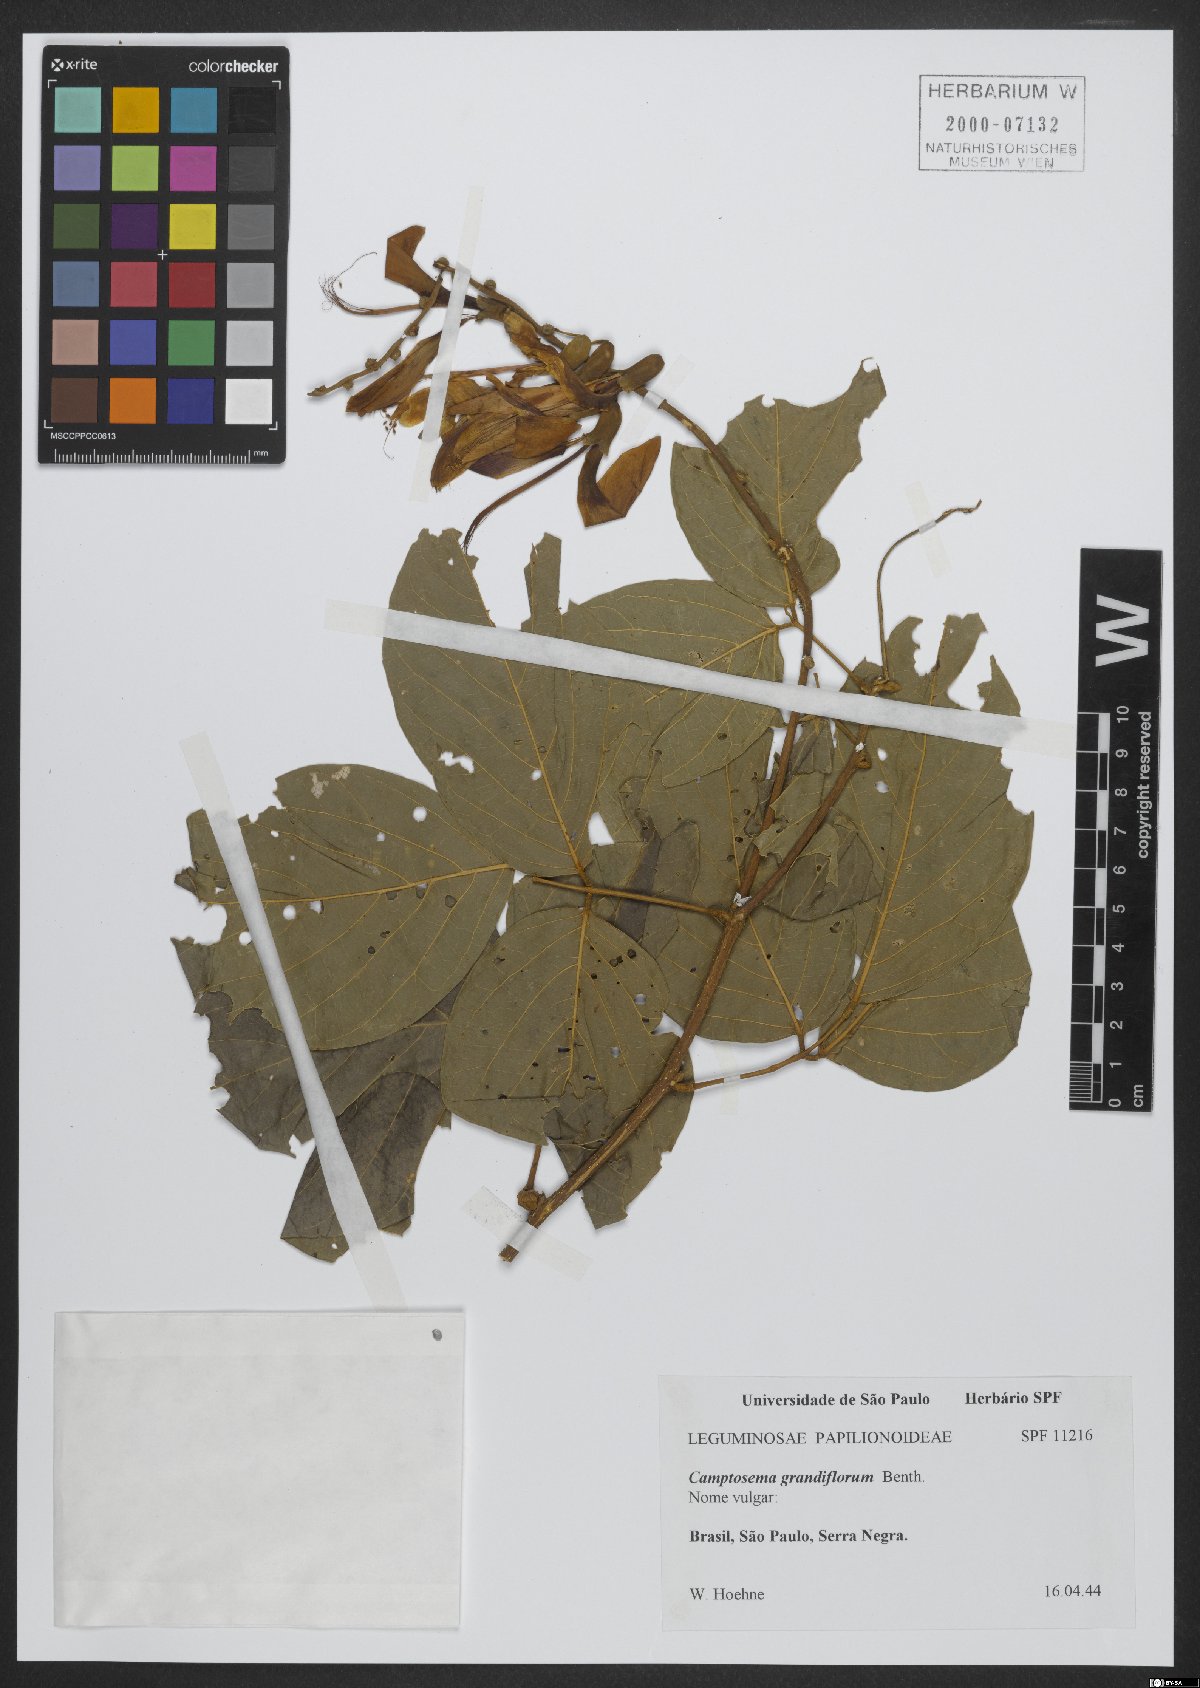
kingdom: Plantae
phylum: Tracheophyta
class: Magnoliopsida
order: Fabales
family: Fabaceae
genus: Camptosema
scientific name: Camptosema spectabile
